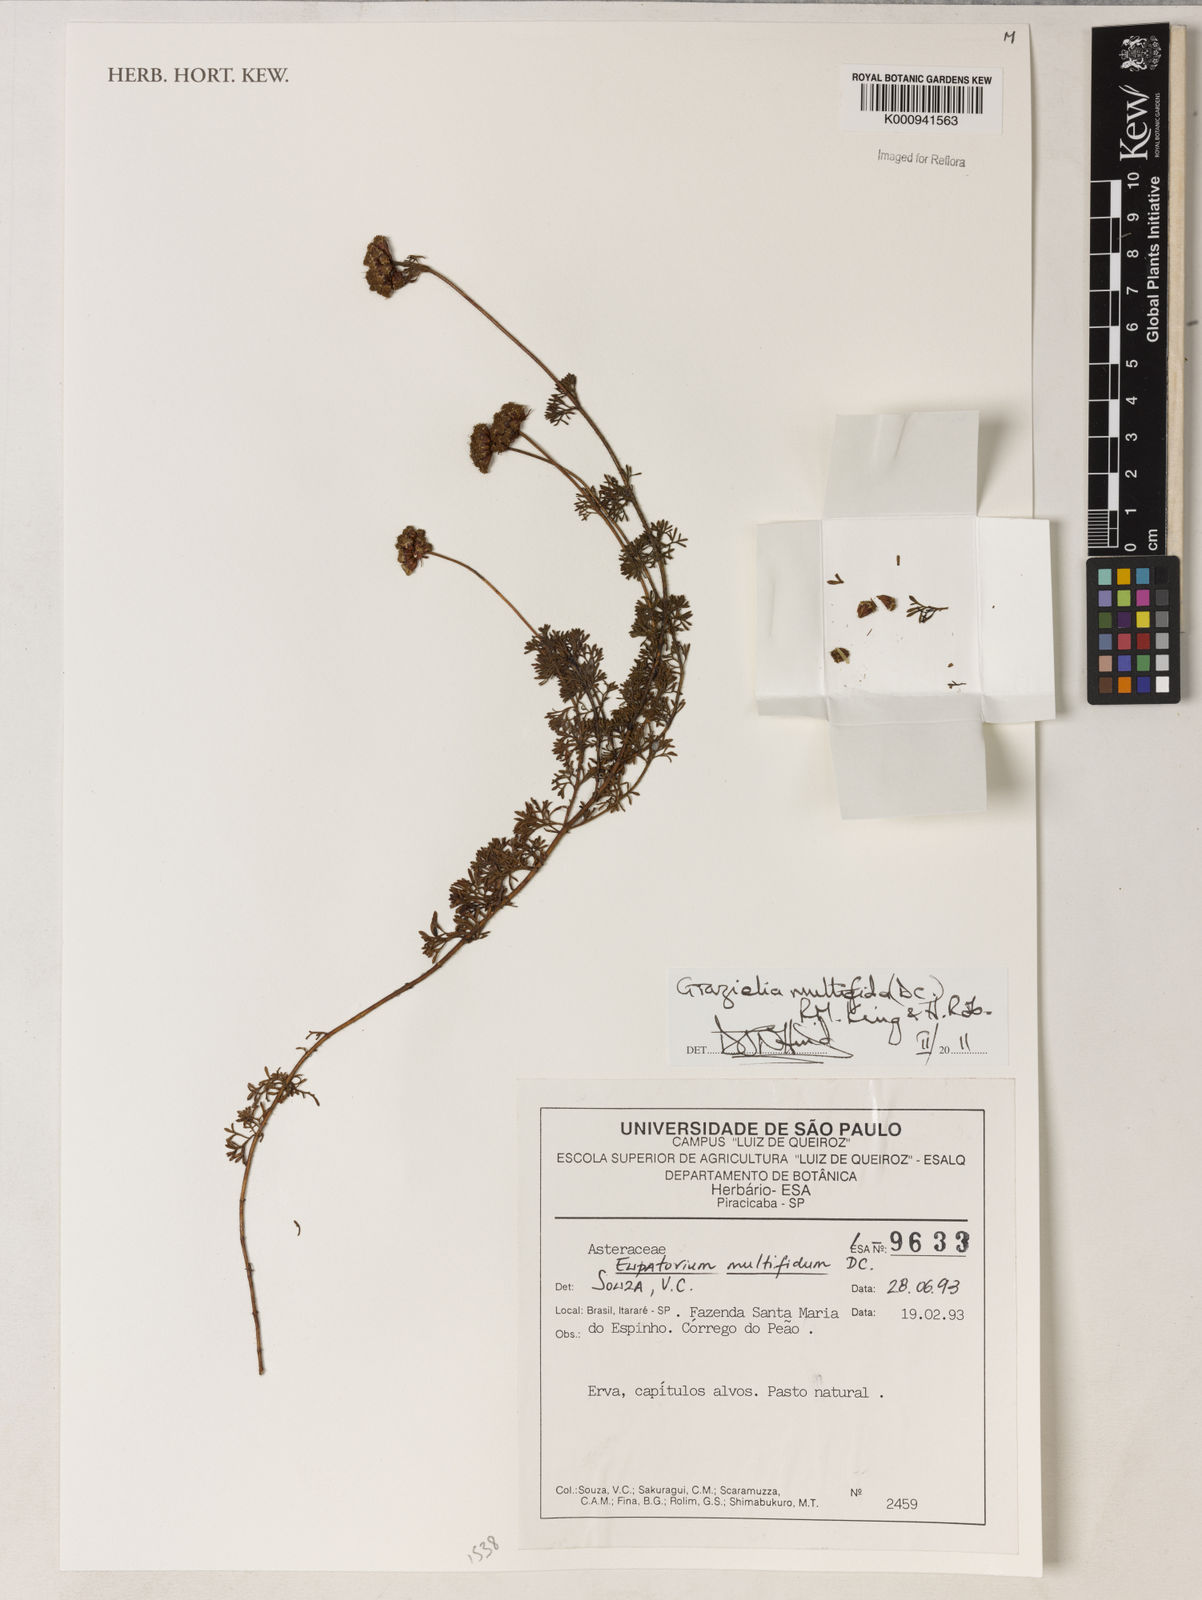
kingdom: Plantae
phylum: Tracheophyta
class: Magnoliopsida
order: Asterales
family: Asteraceae
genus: Grazielia
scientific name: Grazielia multifida
